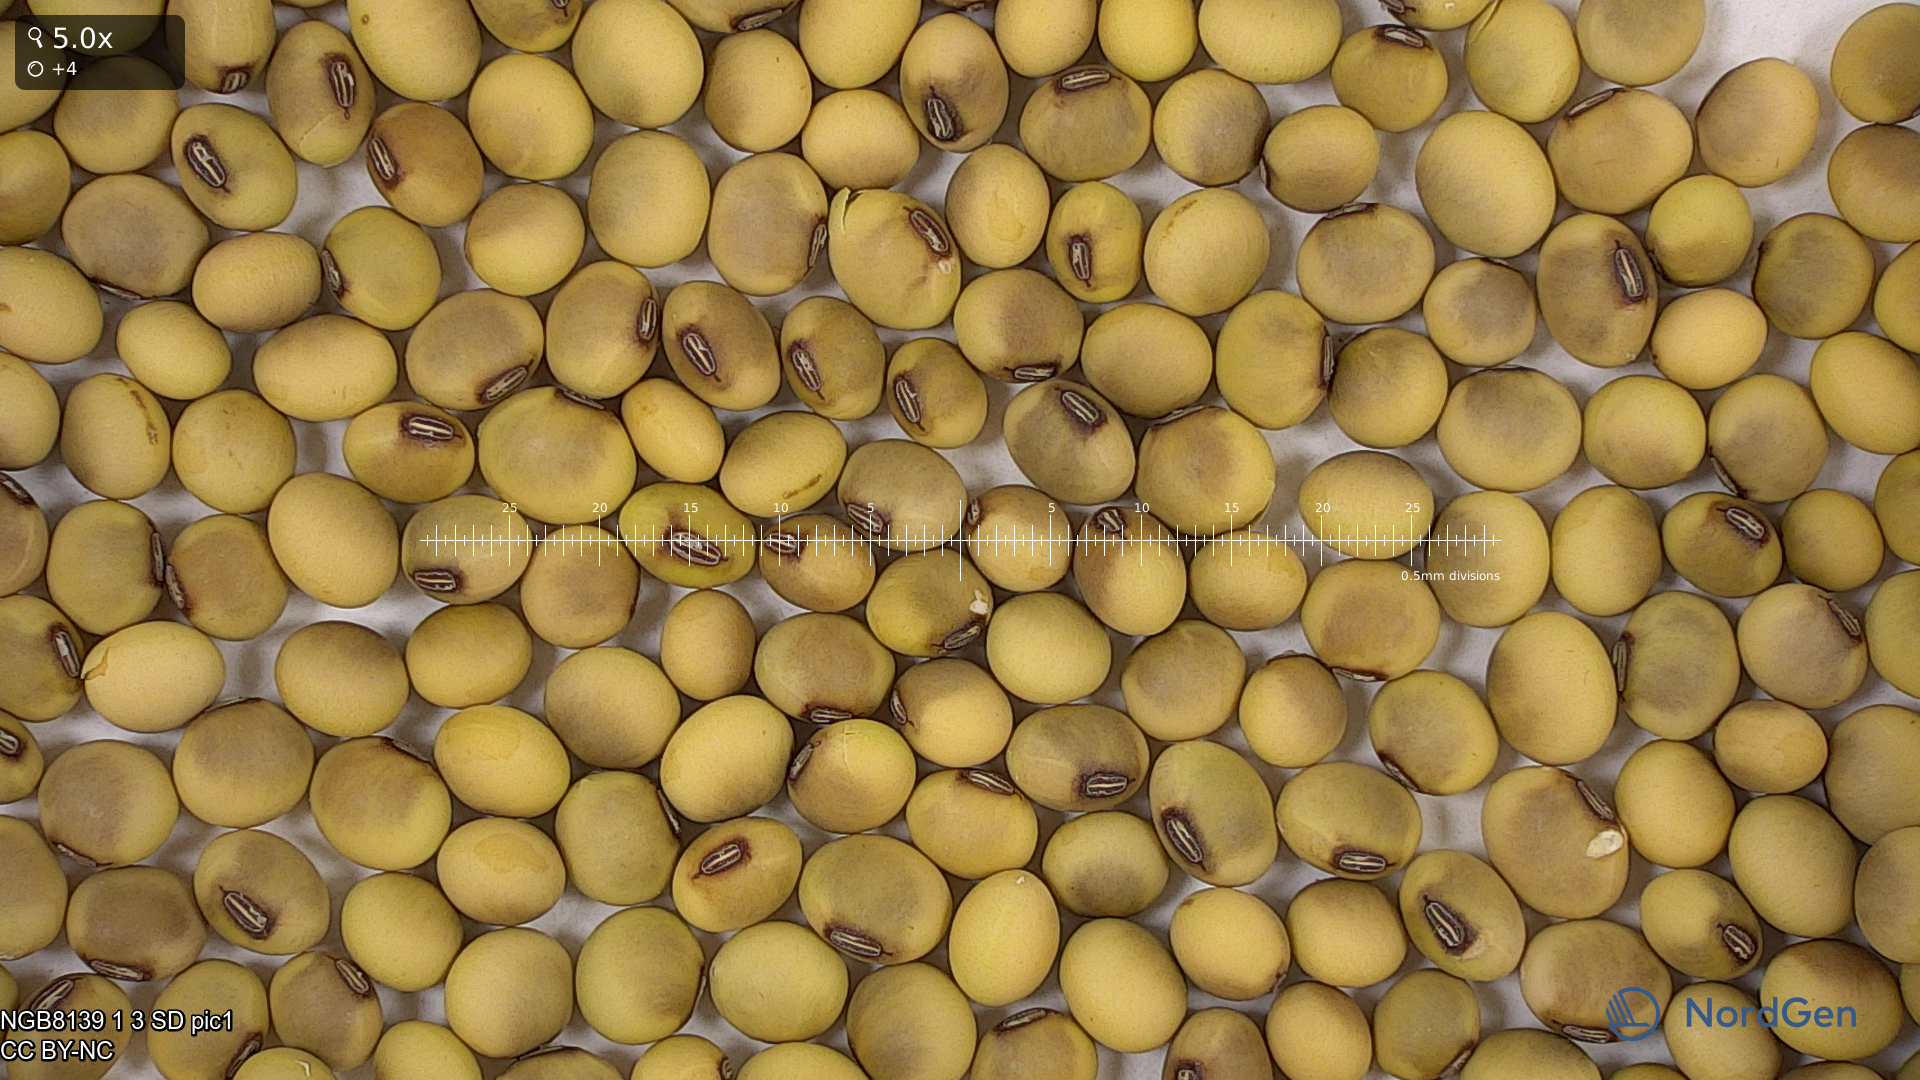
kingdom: Plantae
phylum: Tracheophyta
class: Magnoliopsida
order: Fabales
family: Fabaceae
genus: Glycine
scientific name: Glycine max
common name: Soya-bean
